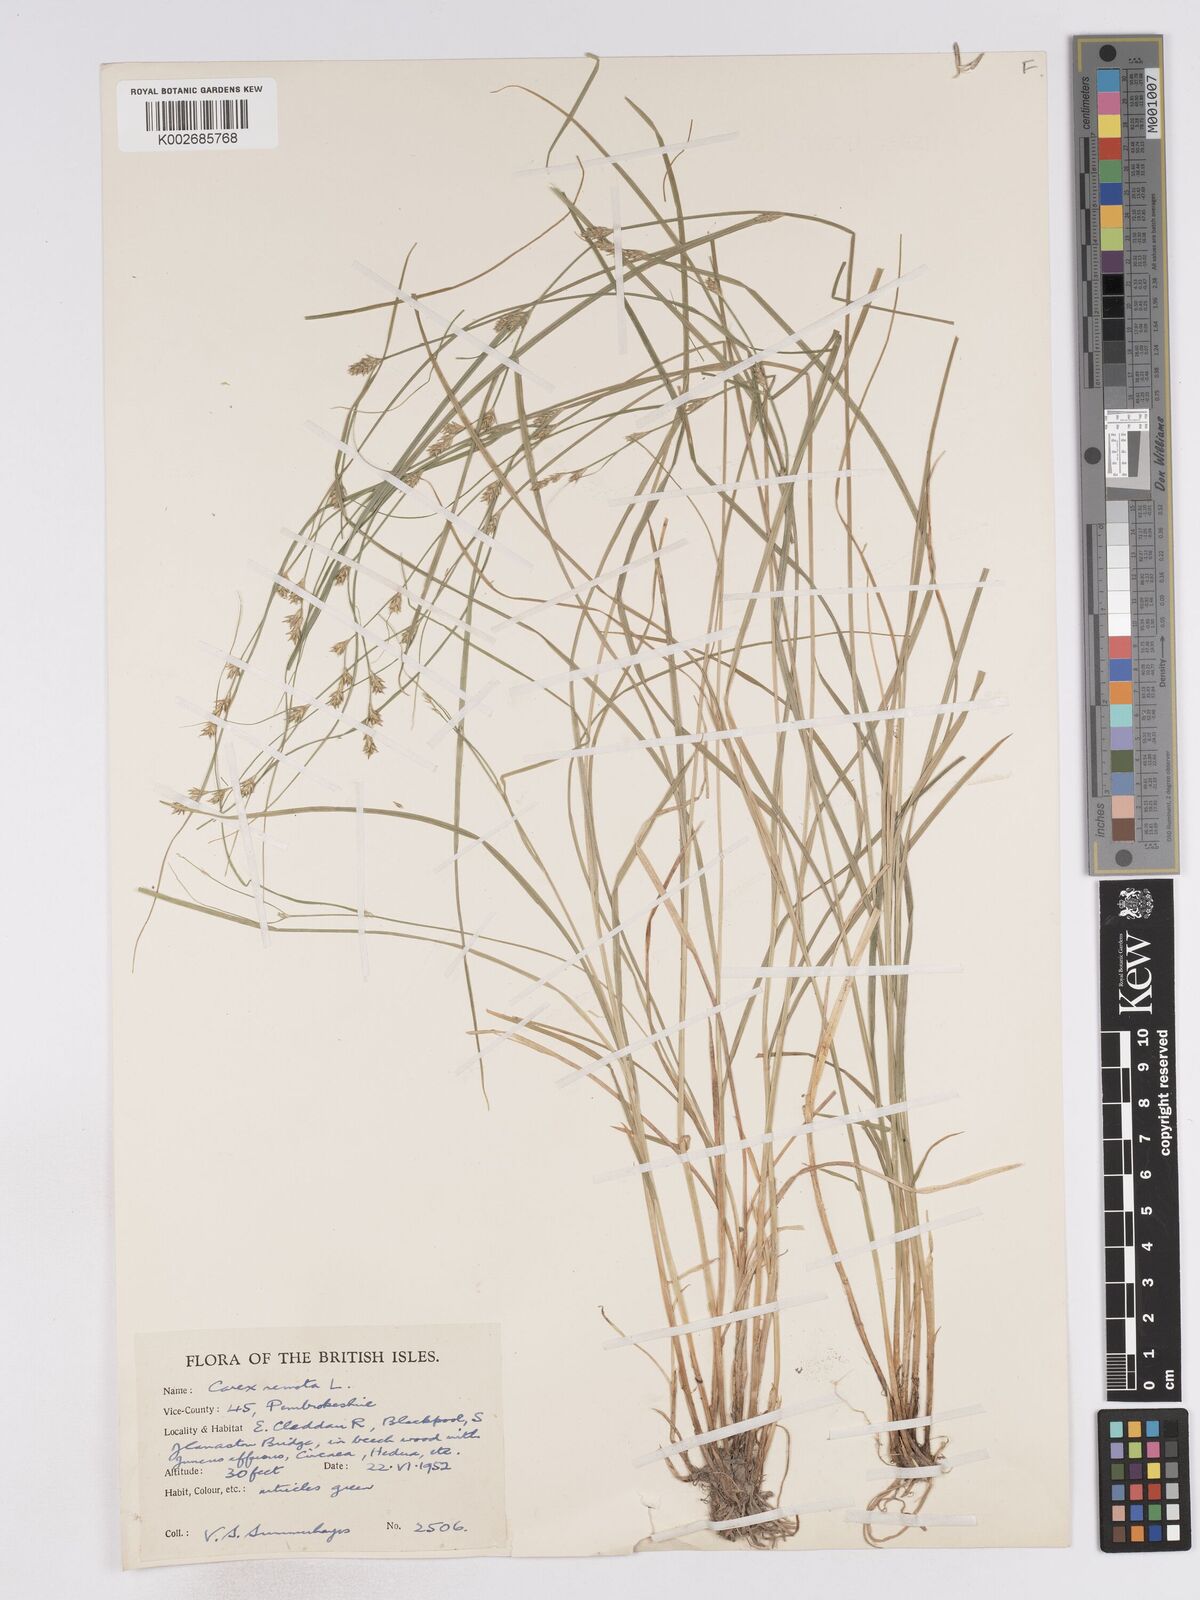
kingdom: Plantae
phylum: Tracheophyta
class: Liliopsida
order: Poales
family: Cyperaceae
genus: Carex
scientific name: Carex remota
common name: Remote sedge
